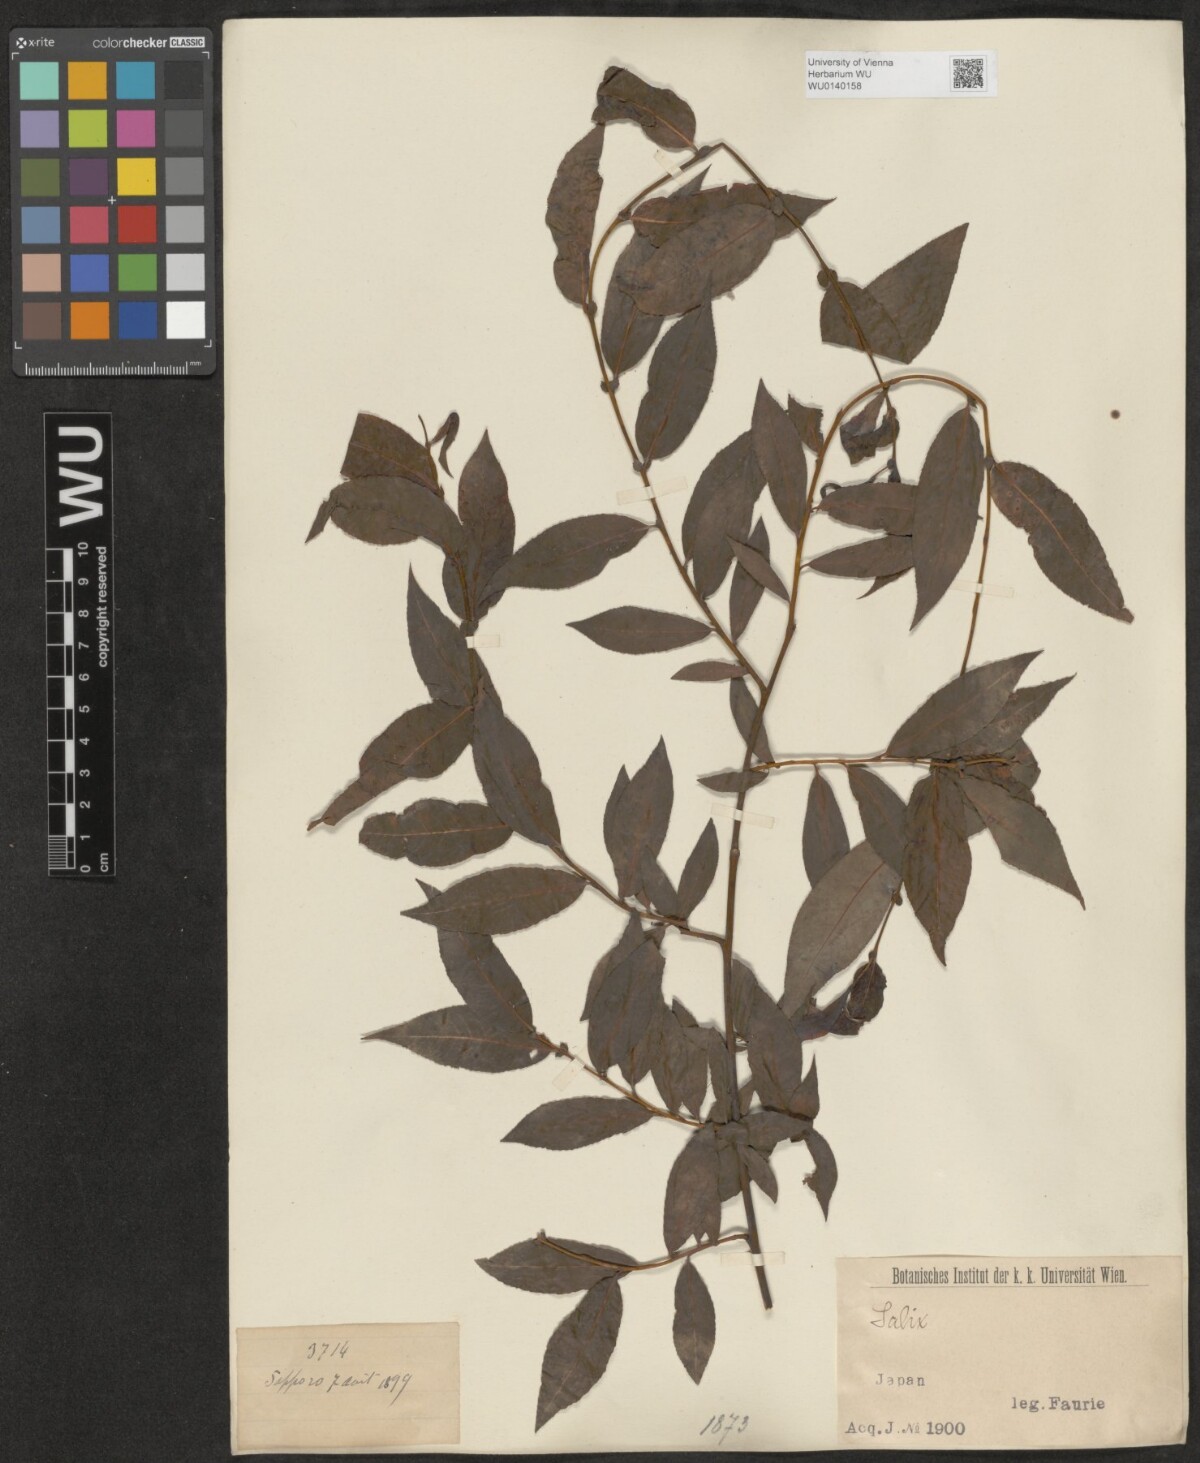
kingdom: Plantae
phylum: Tracheophyta
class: Magnoliopsida
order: Malpighiales
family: Salicaceae
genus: Salix
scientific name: Salix
